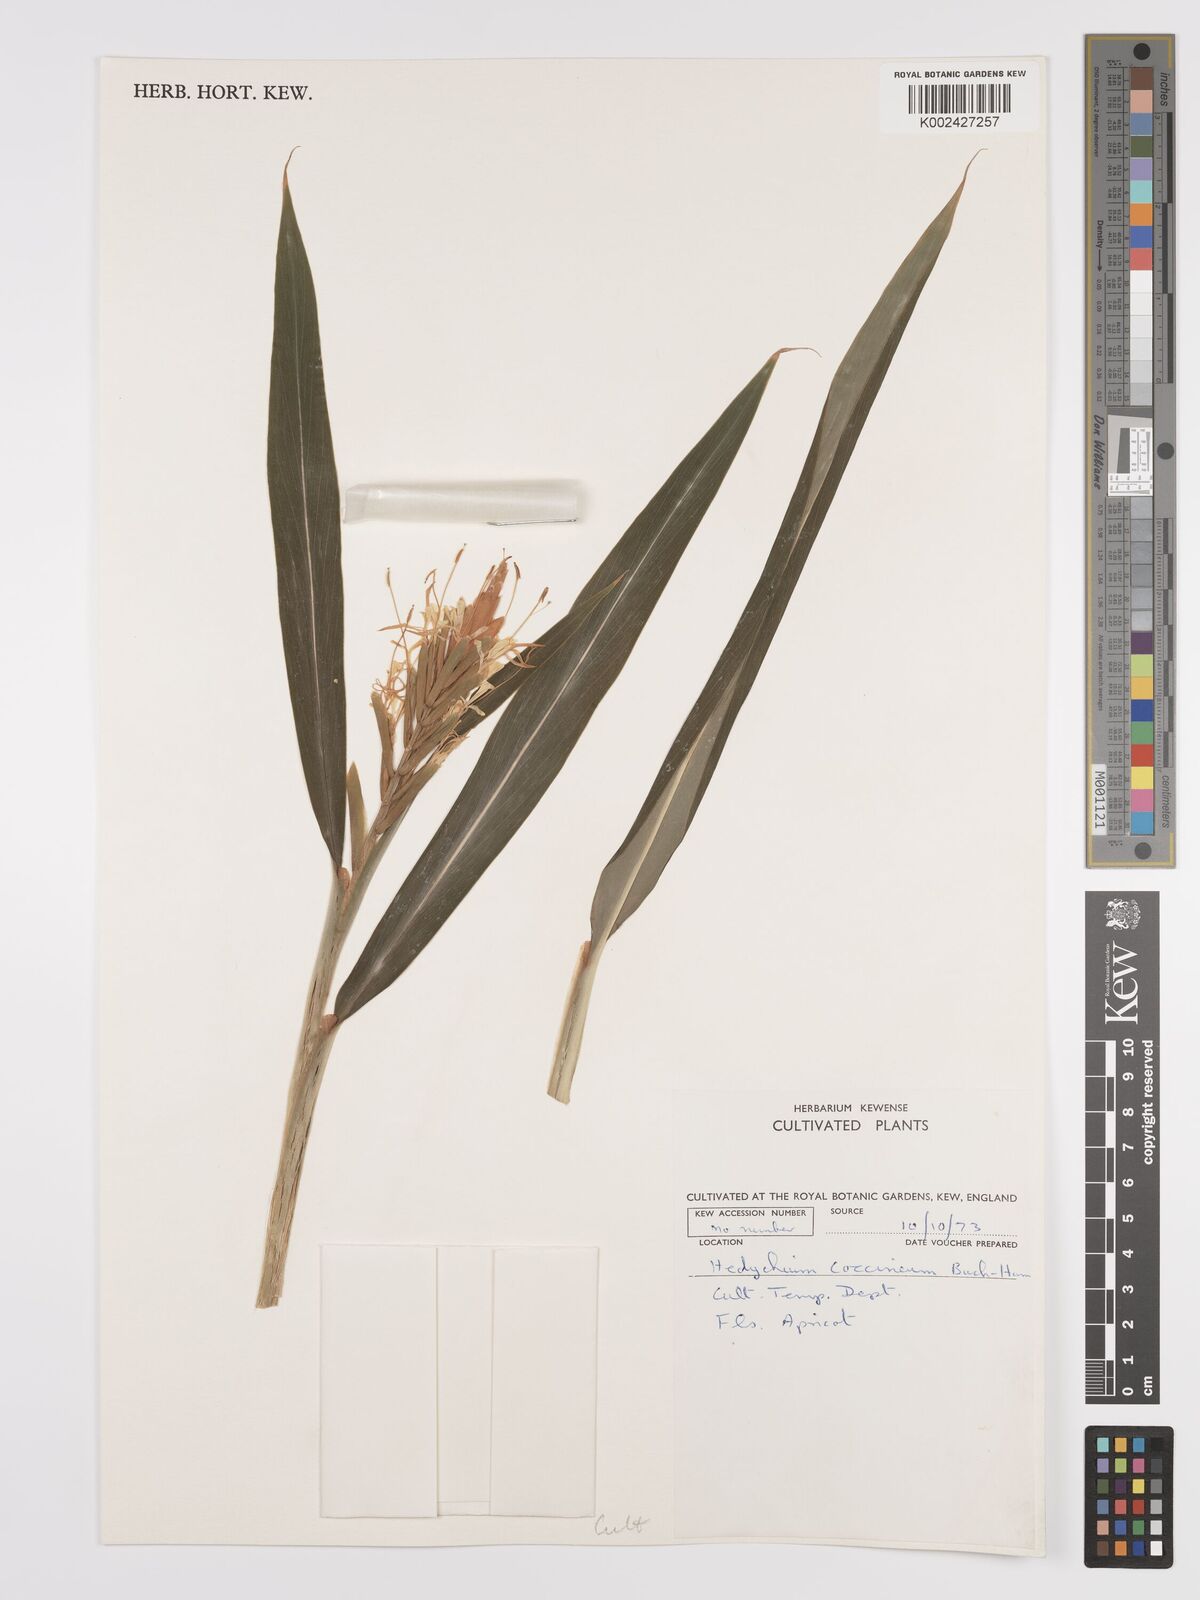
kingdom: Plantae
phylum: Tracheophyta
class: Liliopsida
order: Zingiberales
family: Zingiberaceae
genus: Hedychium
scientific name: Hedychium coccineum
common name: Red ginger-lily
